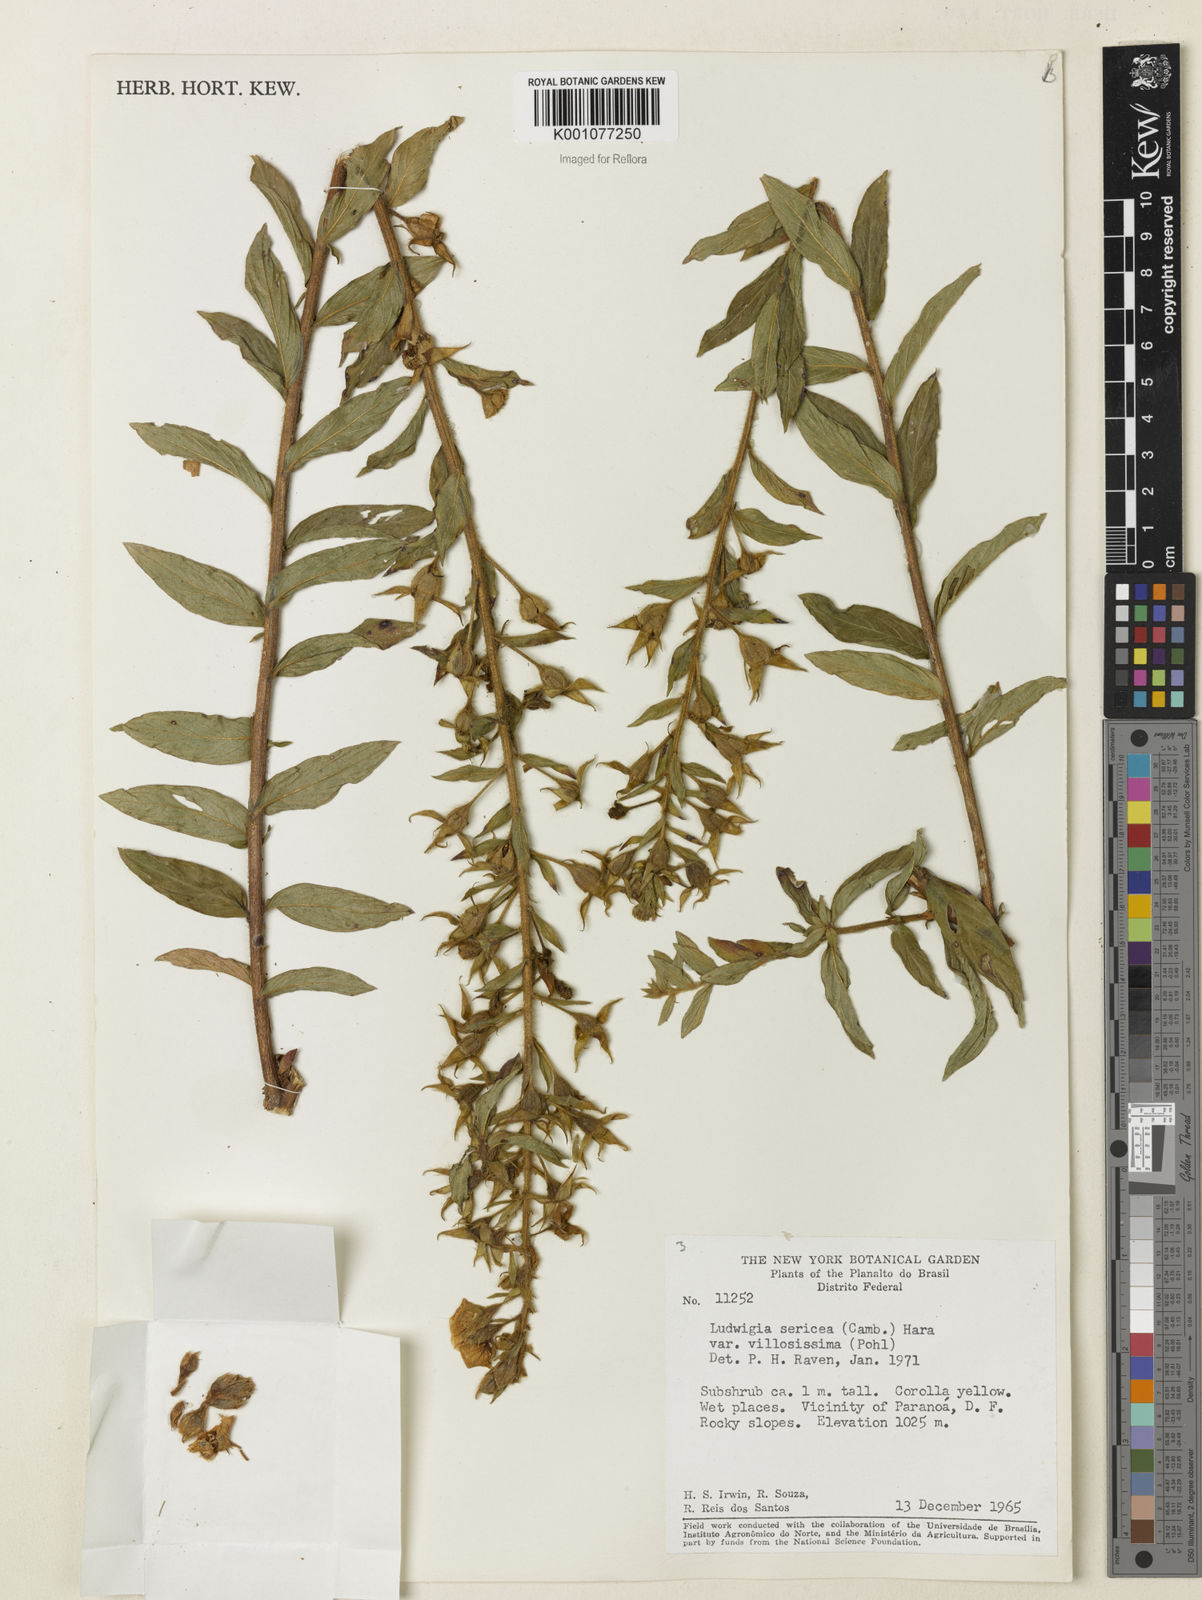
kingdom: Plantae
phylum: Tracheophyta
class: Magnoliopsida
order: Myrtales
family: Onagraceae
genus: Ludwigia
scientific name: Ludwigia sericea
